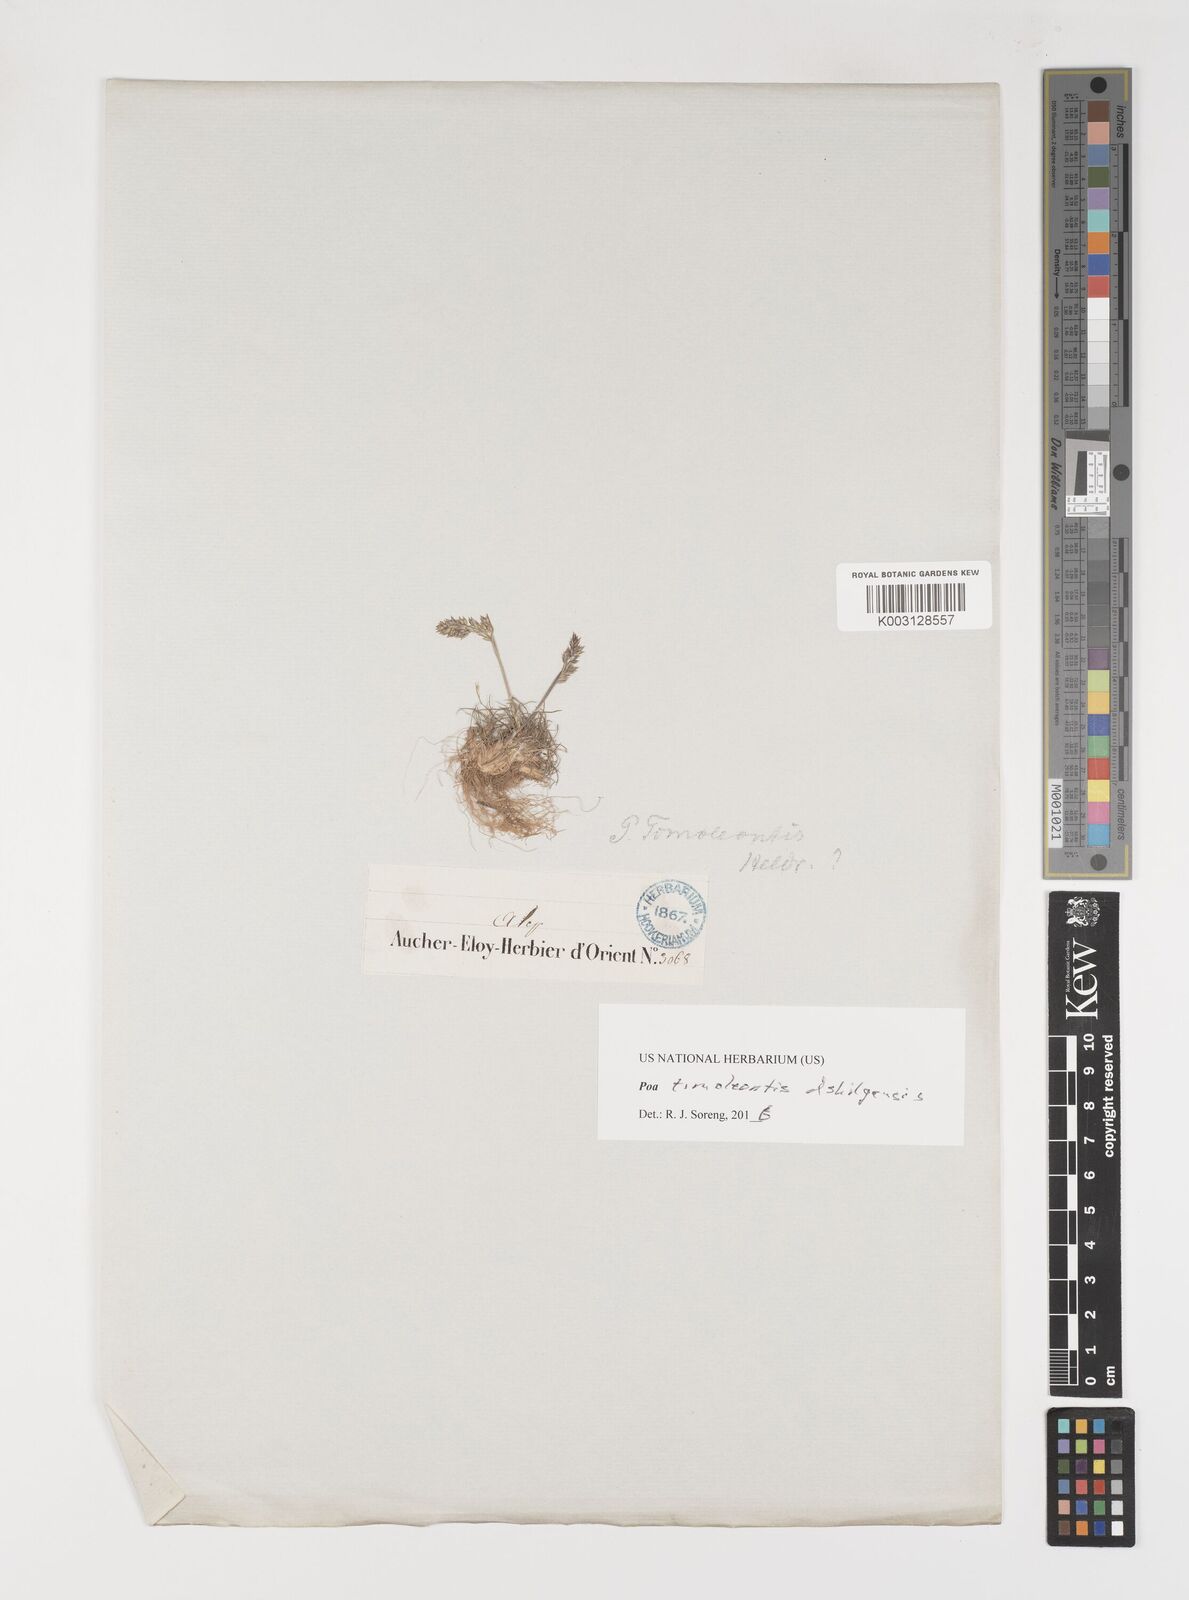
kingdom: Plantae
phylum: Tracheophyta
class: Liliopsida
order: Poales
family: Poaceae
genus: Poa
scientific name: Poa timoleontis
